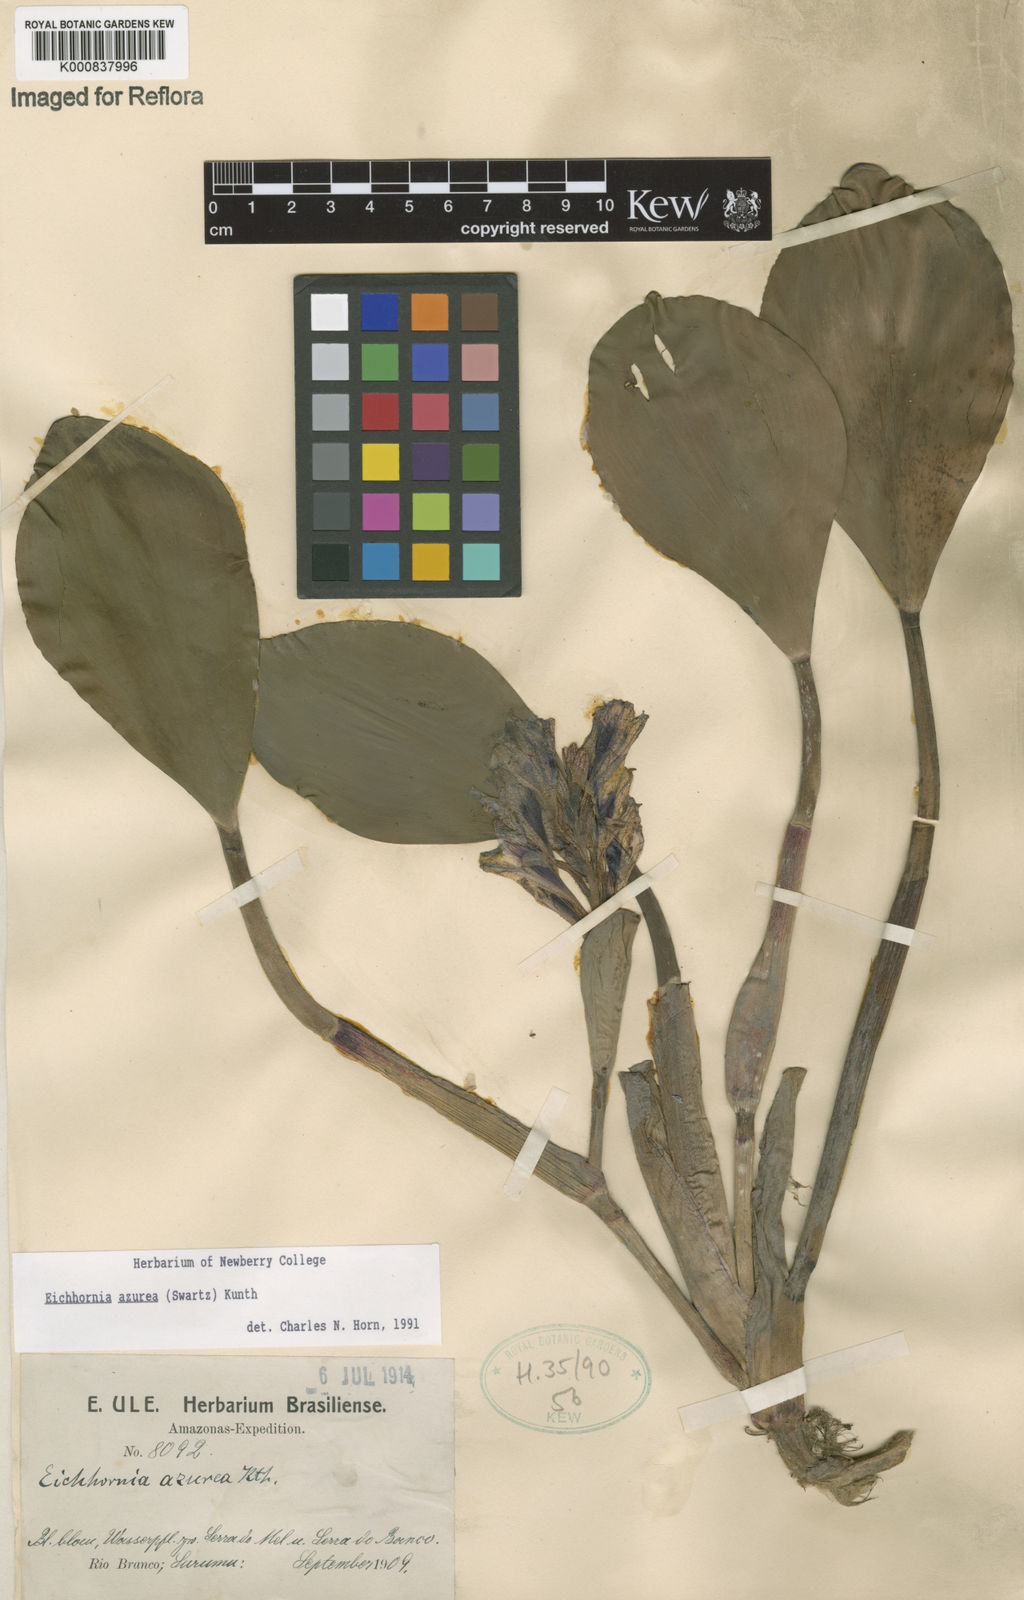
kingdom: Plantae
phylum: Tracheophyta
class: Liliopsida
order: Commelinales
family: Pontederiaceae
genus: Pontederia
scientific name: Pontederia azurea
